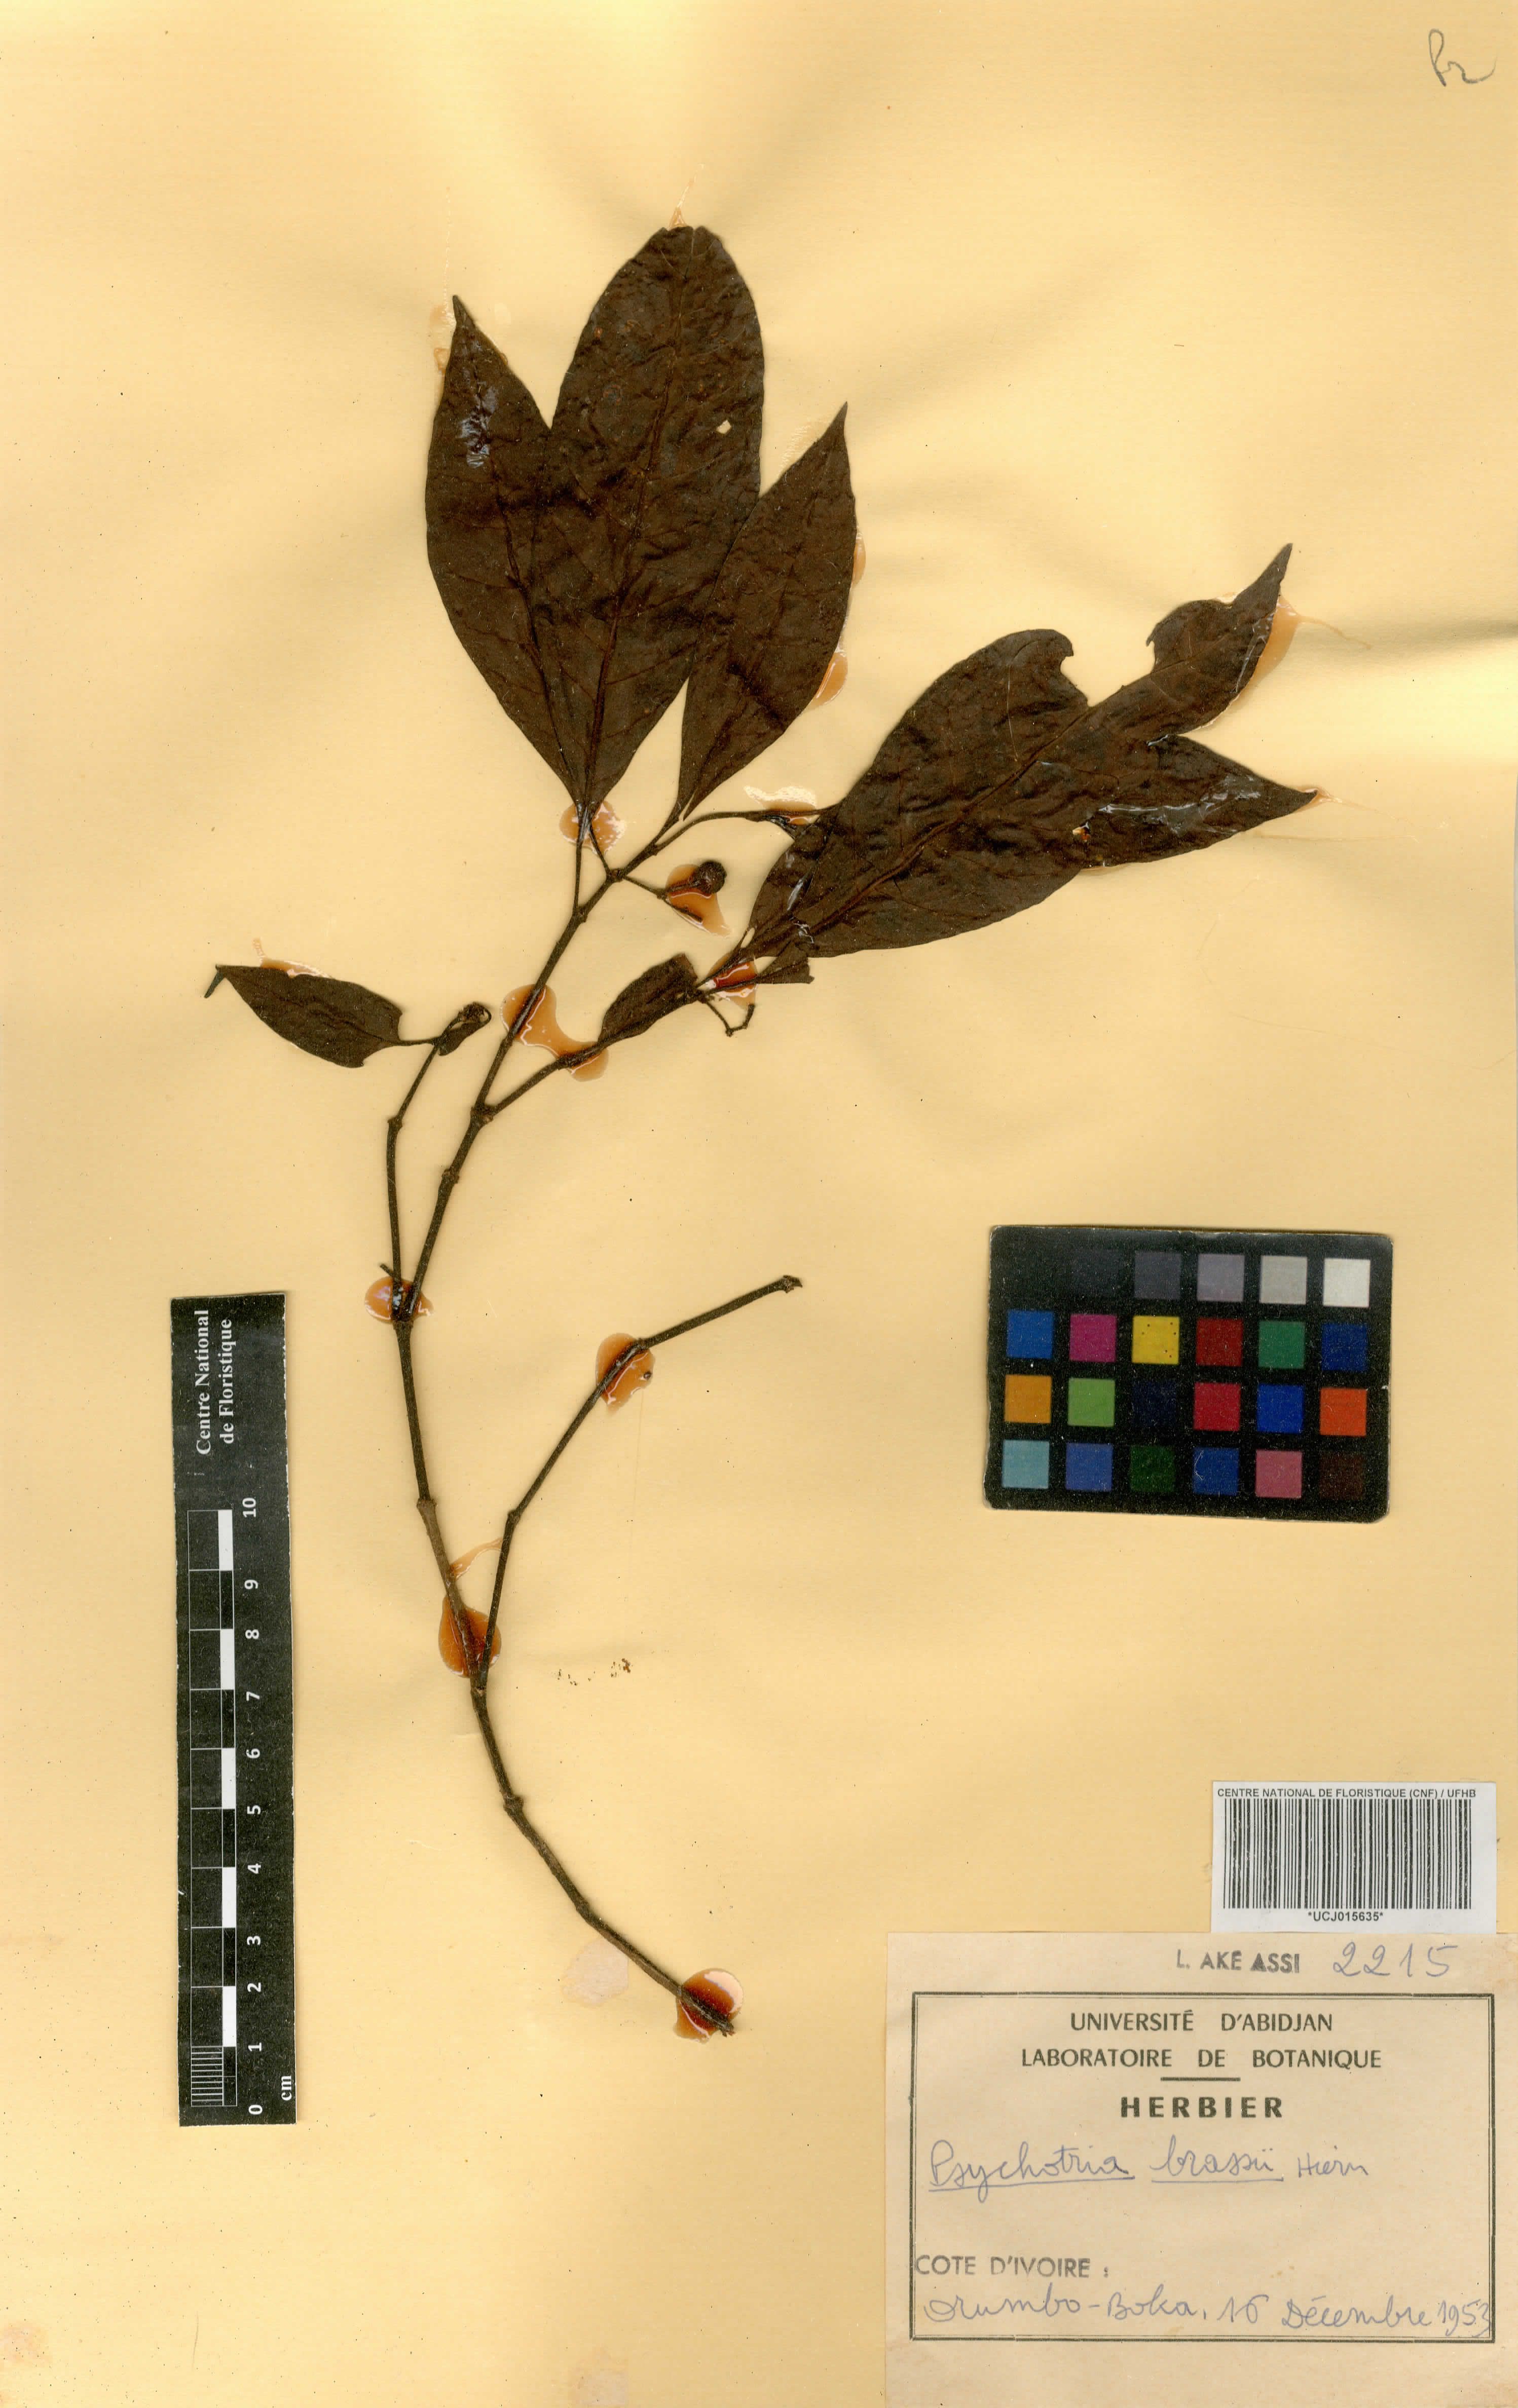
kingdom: Plantae
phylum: Tracheophyta
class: Magnoliopsida
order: Gentianales
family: Rubiaceae
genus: Psychotria
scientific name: Psychotria brassii
